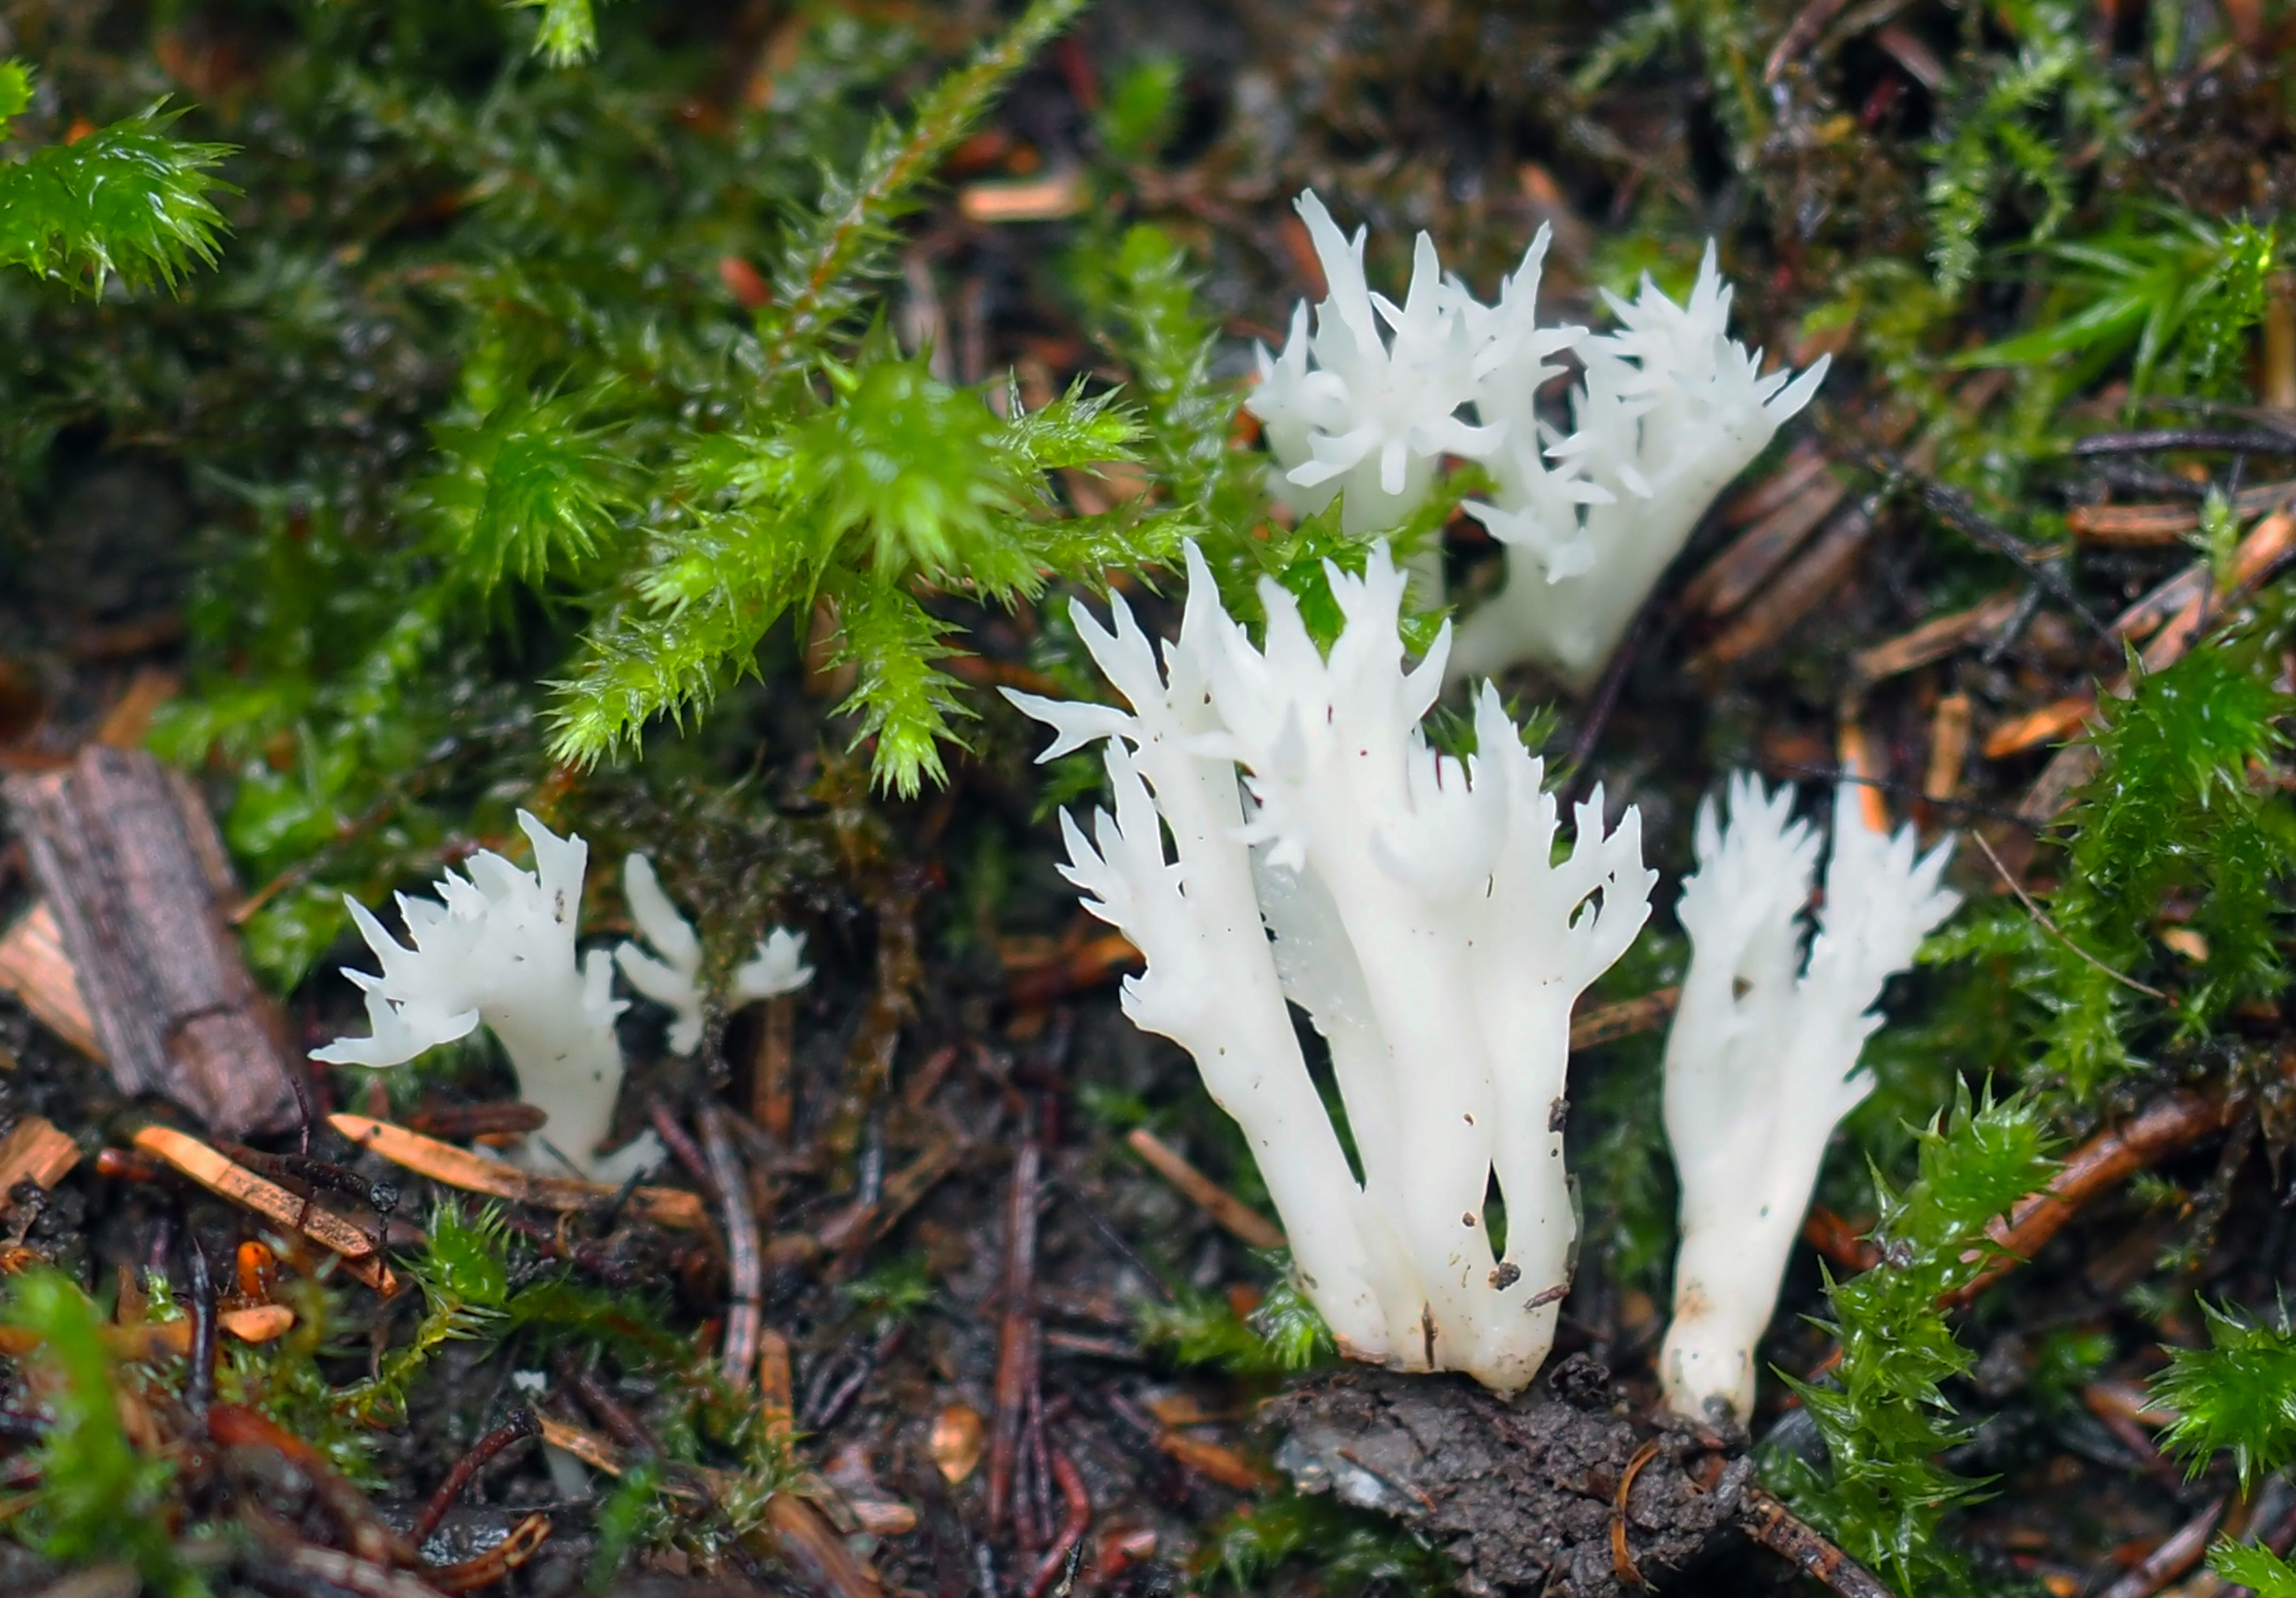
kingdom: Fungi
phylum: Basidiomycota
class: Agaricomycetes
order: Cantharellales
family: Hydnaceae
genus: Clavulina
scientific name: Clavulina
